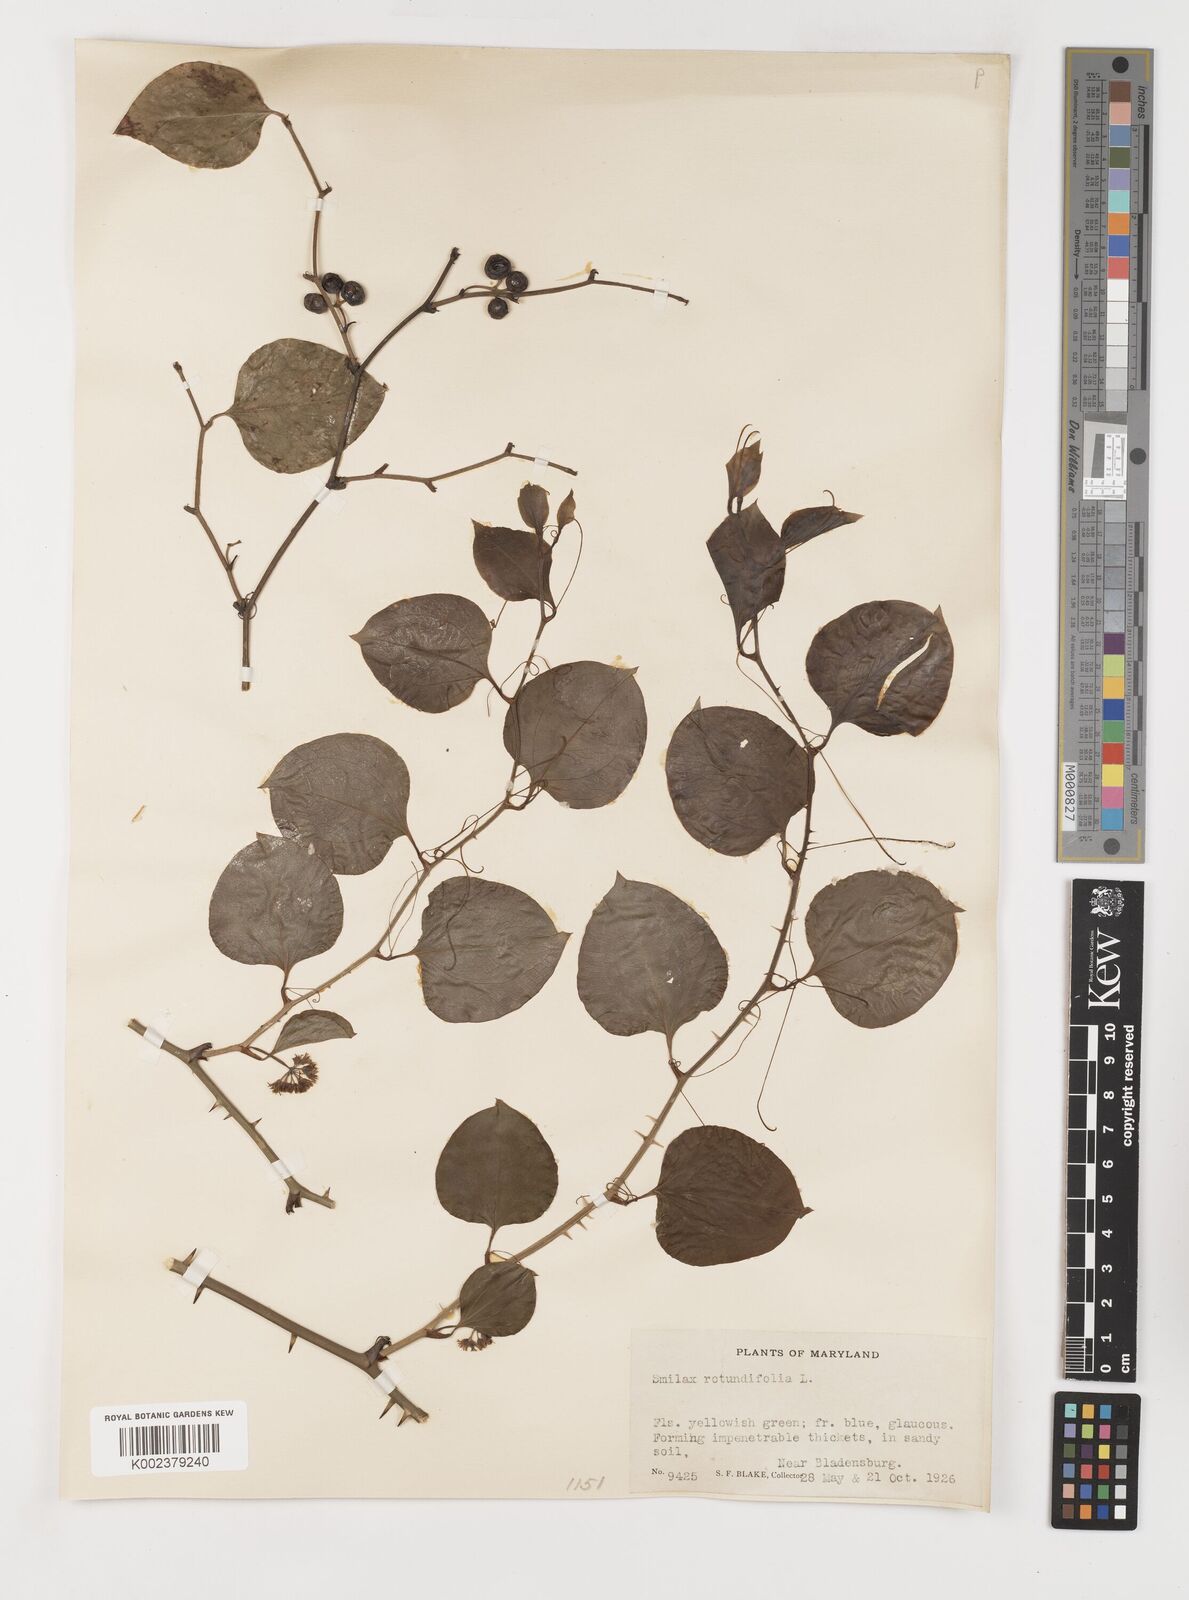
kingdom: Plantae
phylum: Tracheophyta
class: Liliopsida
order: Liliales
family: Smilacaceae
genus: Smilax
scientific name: Smilax rotundifolia
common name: Bullbriar
